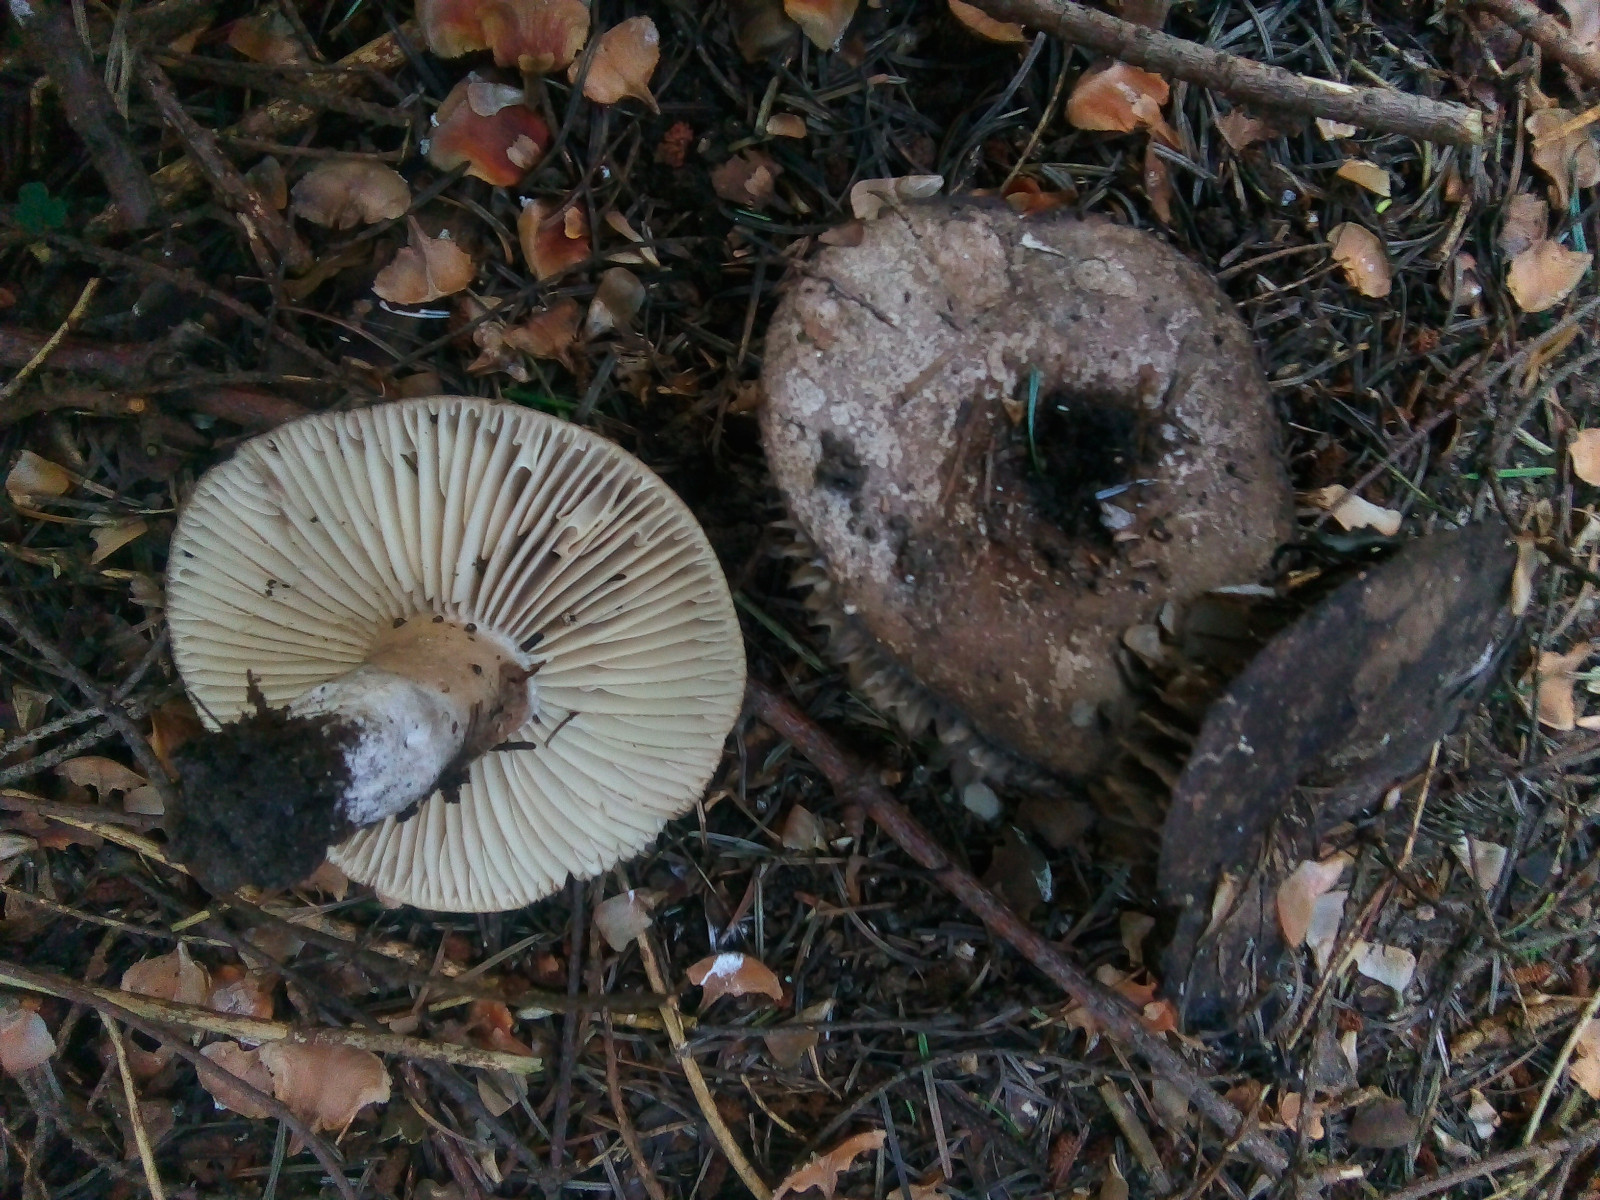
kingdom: Fungi
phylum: Basidiomycota
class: Agaricomycetes
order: Russulales
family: Russulaceae
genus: Russula
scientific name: Russula adusta
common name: sværtende skørhat
